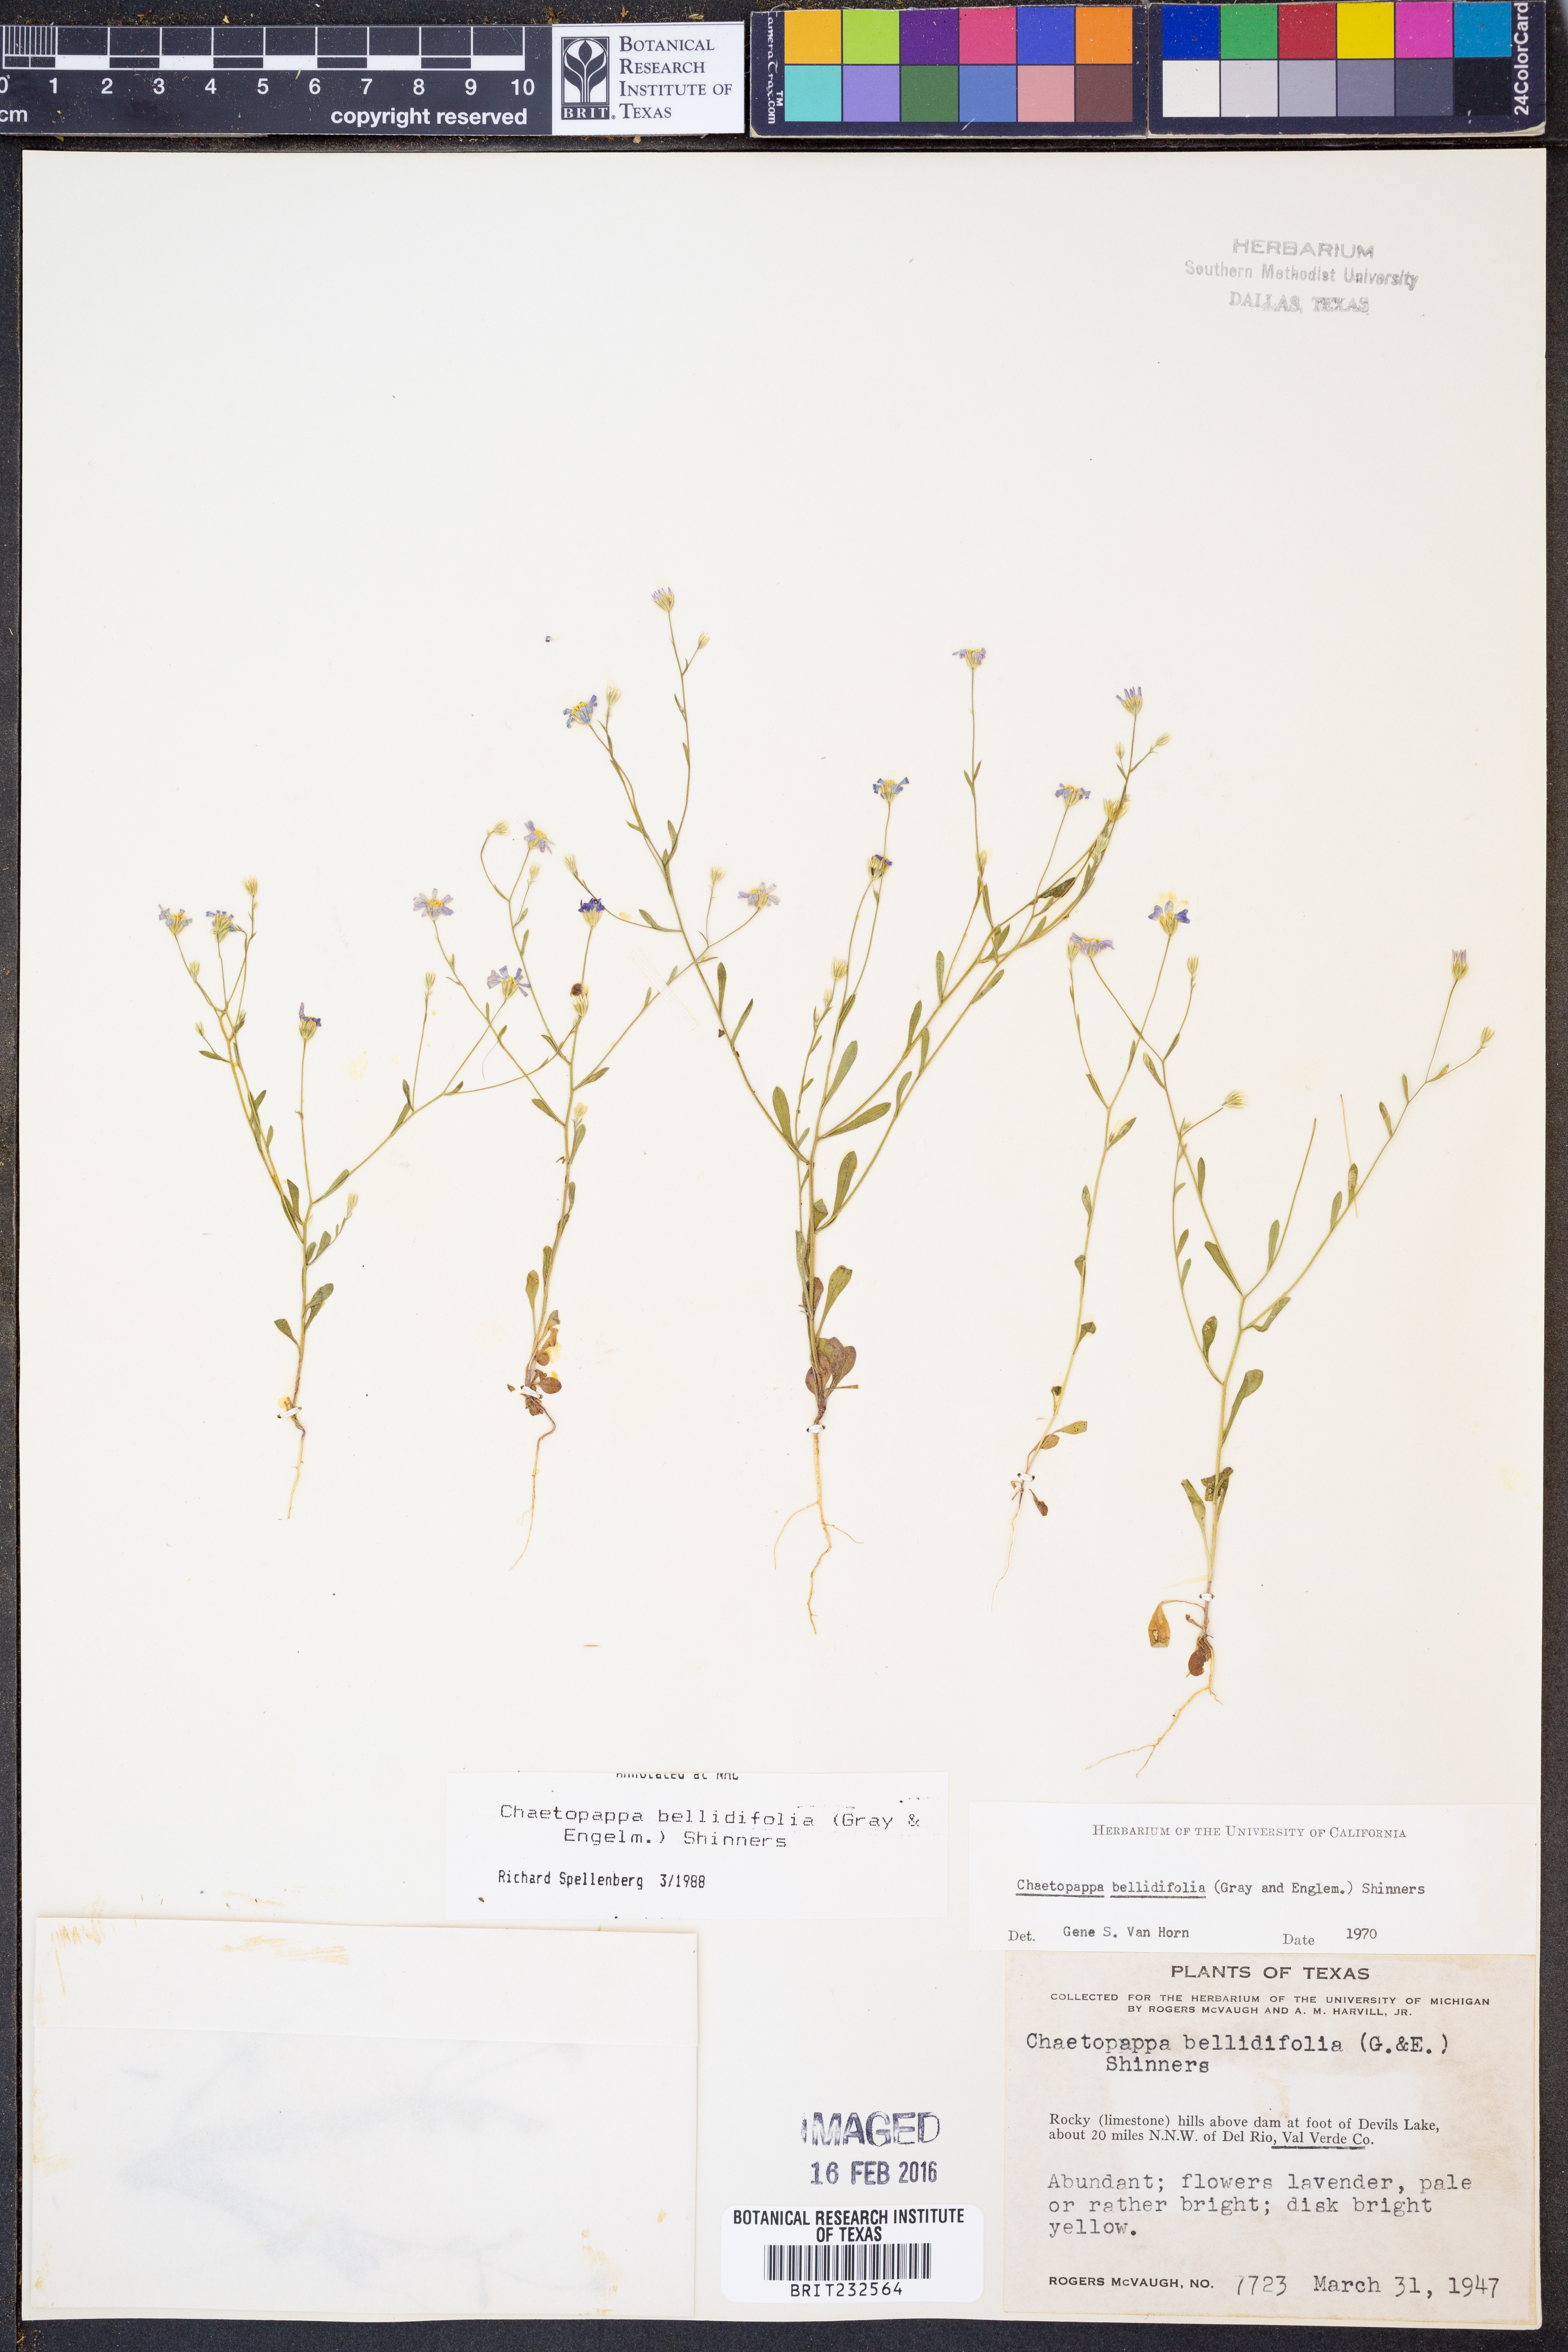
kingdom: Plantae
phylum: Tracheophyta
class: Magnoliopsida
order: Asterales
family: Asteraceae
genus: Chaetopappa
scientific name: Chaetopappa bellidifolia
